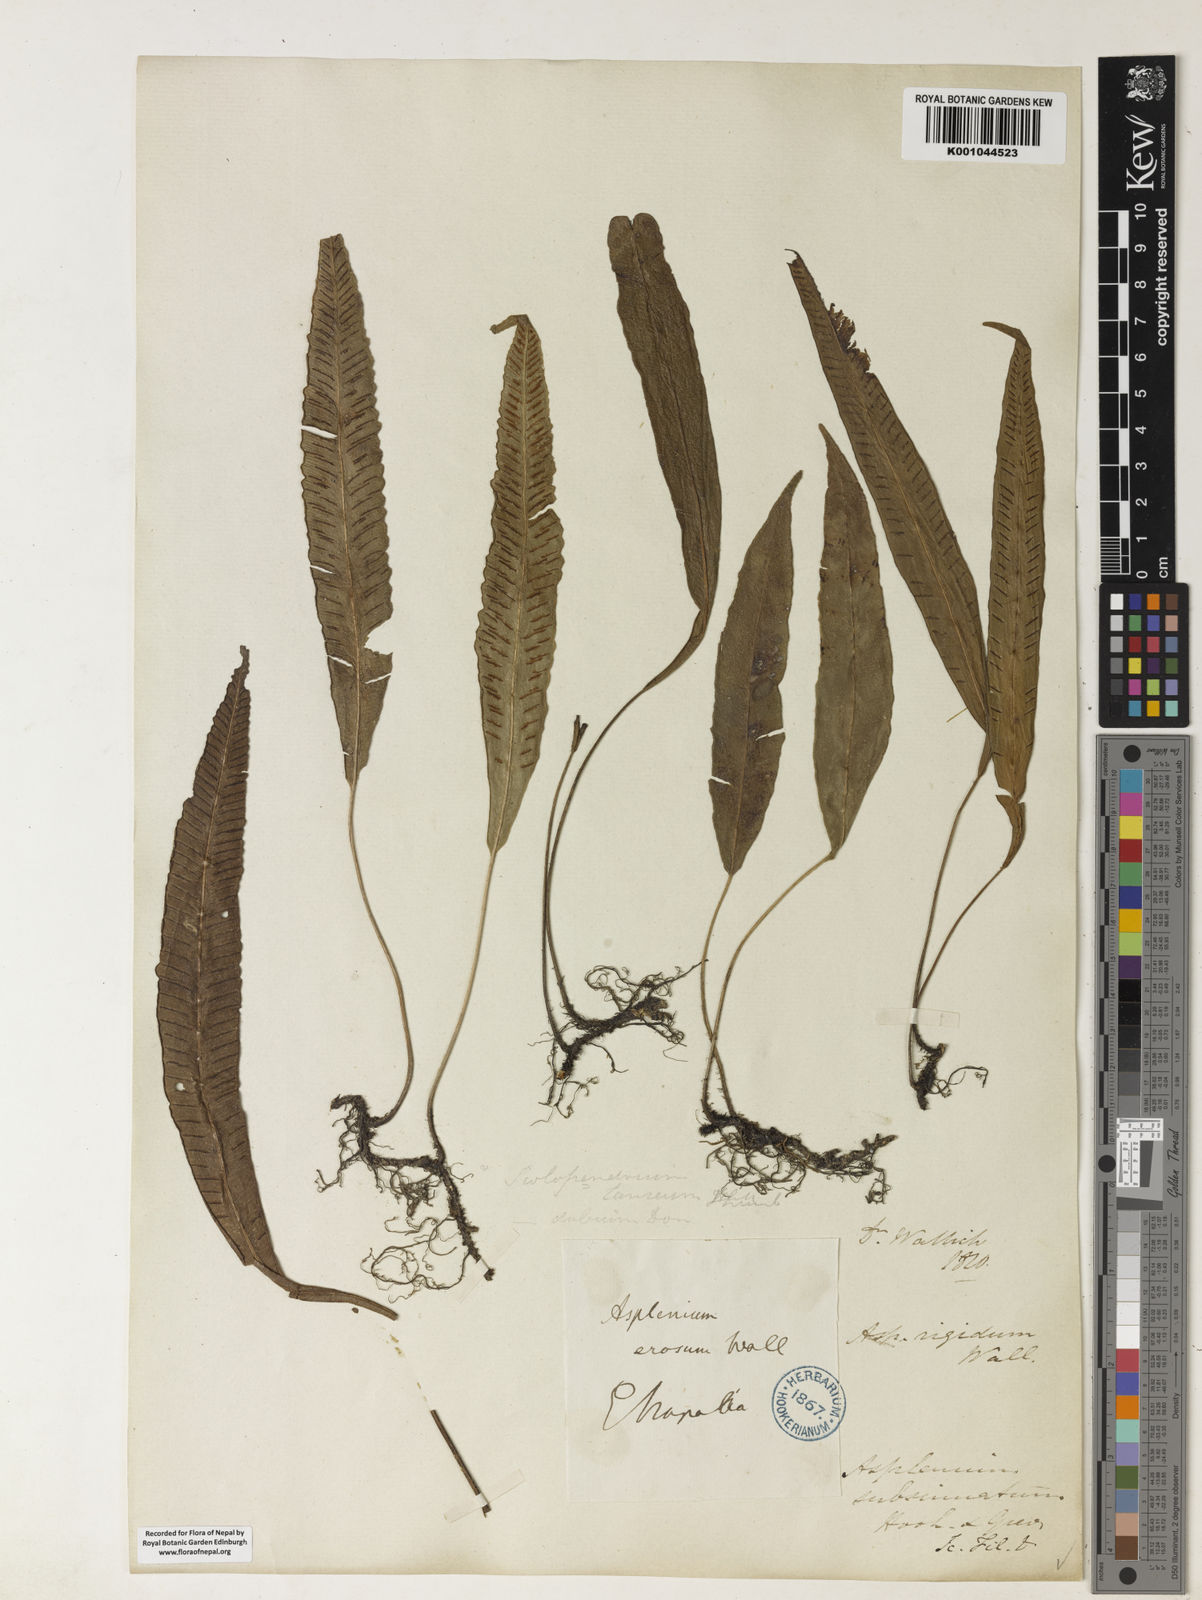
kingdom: Plantae
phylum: Tracheophyta
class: Polypodiopsida
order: Polypodiales
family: Athyriaceae
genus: Deparia
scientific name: Deparia lancea
